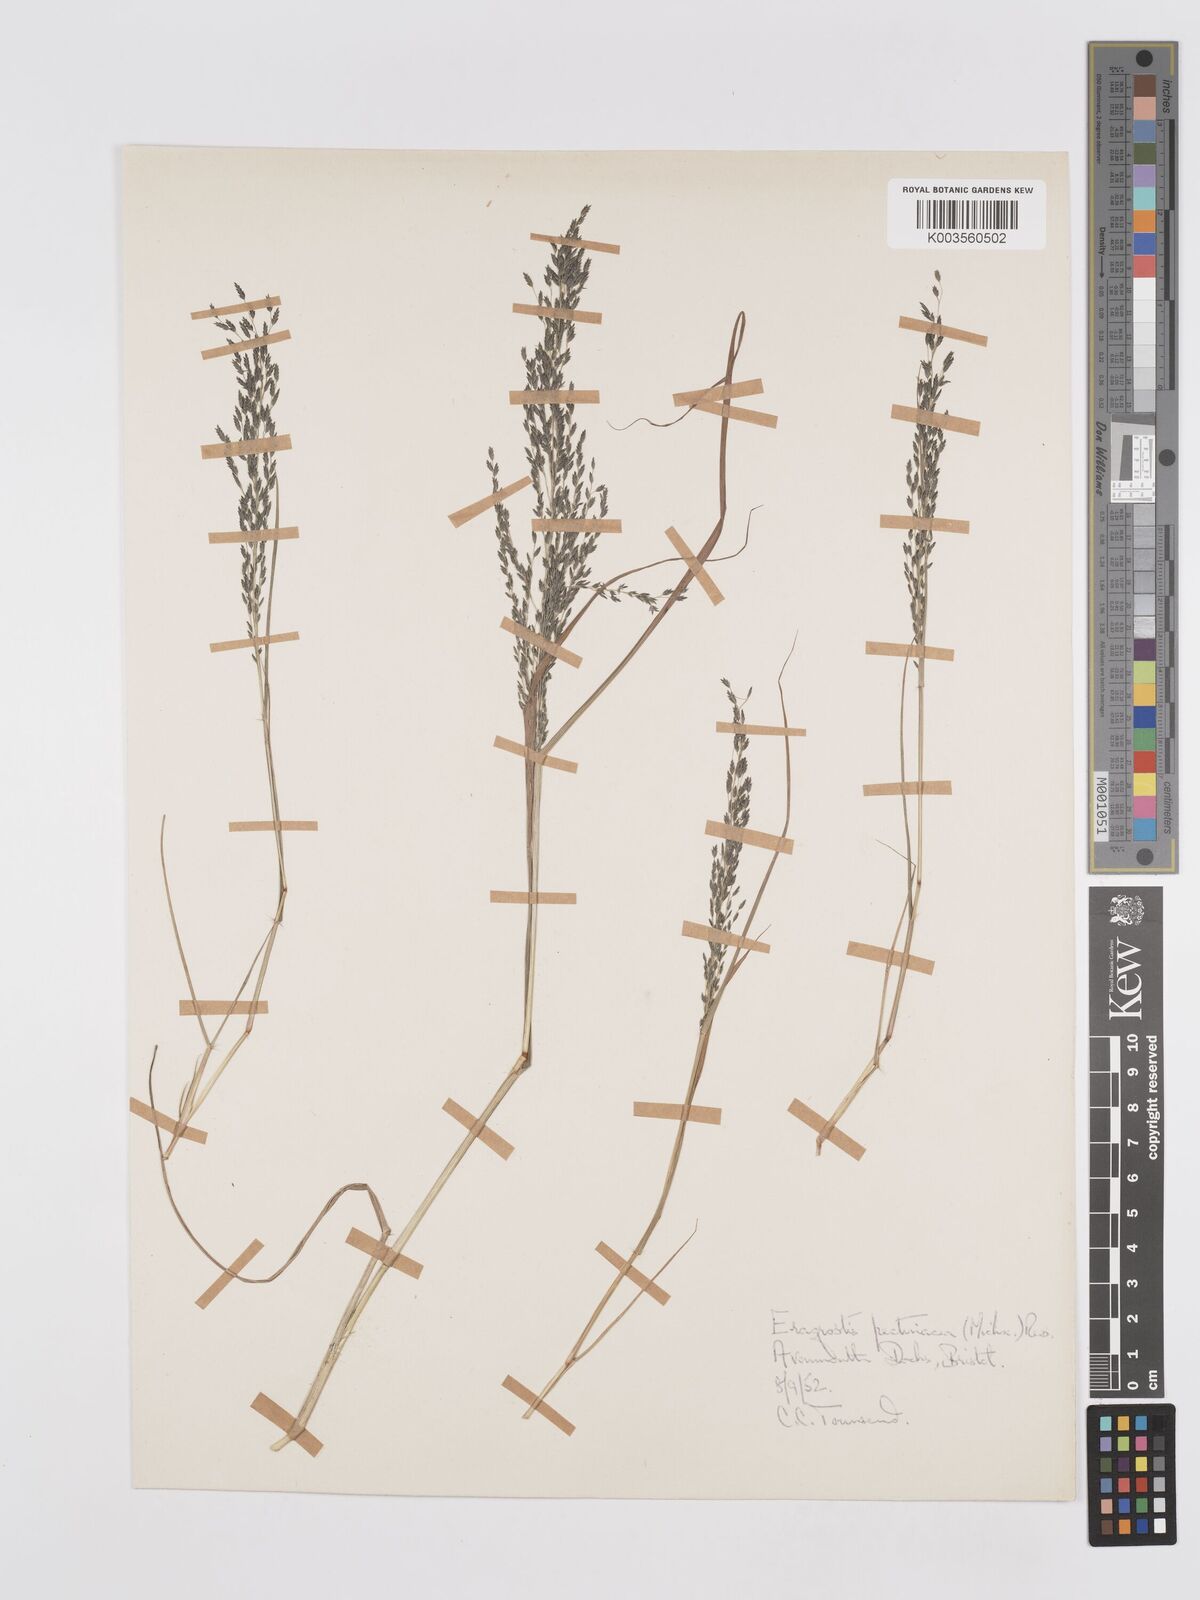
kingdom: Plantae
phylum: Tracheophyta
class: Liliopsida
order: Poales
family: Poaceae
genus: Eragrostis
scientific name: Eragrostis pectinacea
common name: Tufted lovegrass
